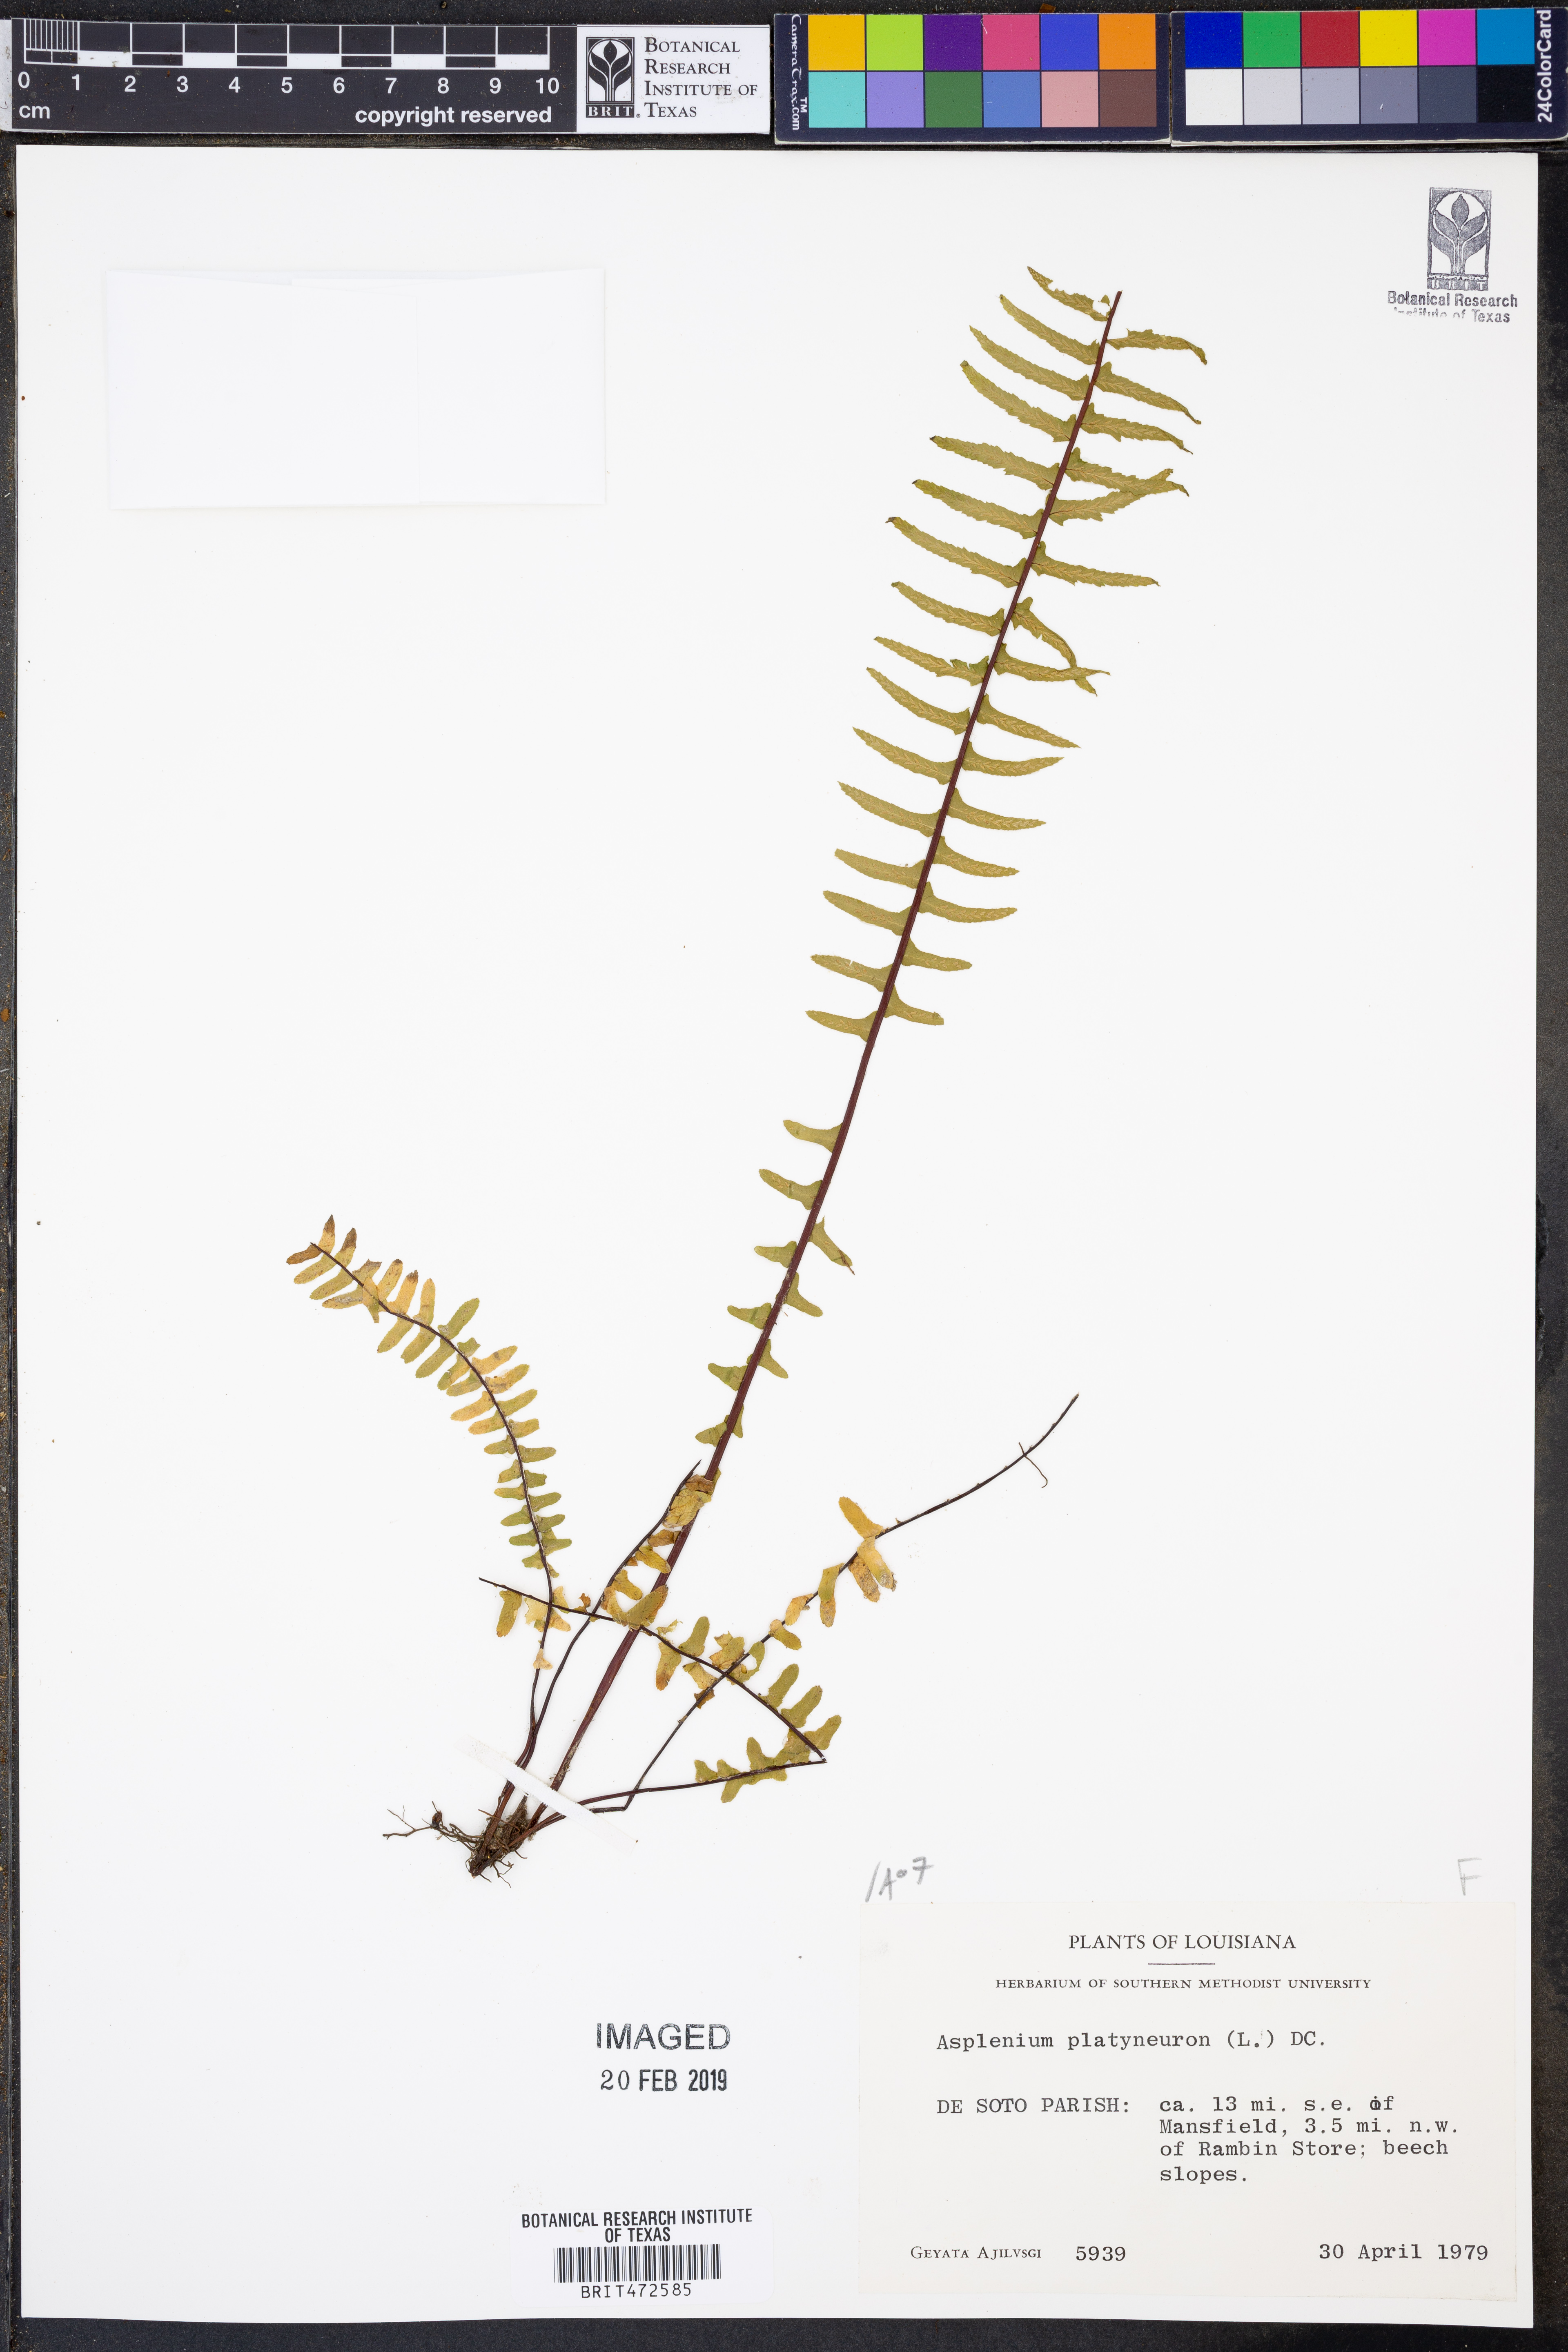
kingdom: Plantae
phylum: Tracheophyta
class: Polypodiopsida
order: Polypodiales
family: Aspleniaceae
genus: Asplenium
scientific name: Asplenium platyneuron
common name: Ebony spleenwort
